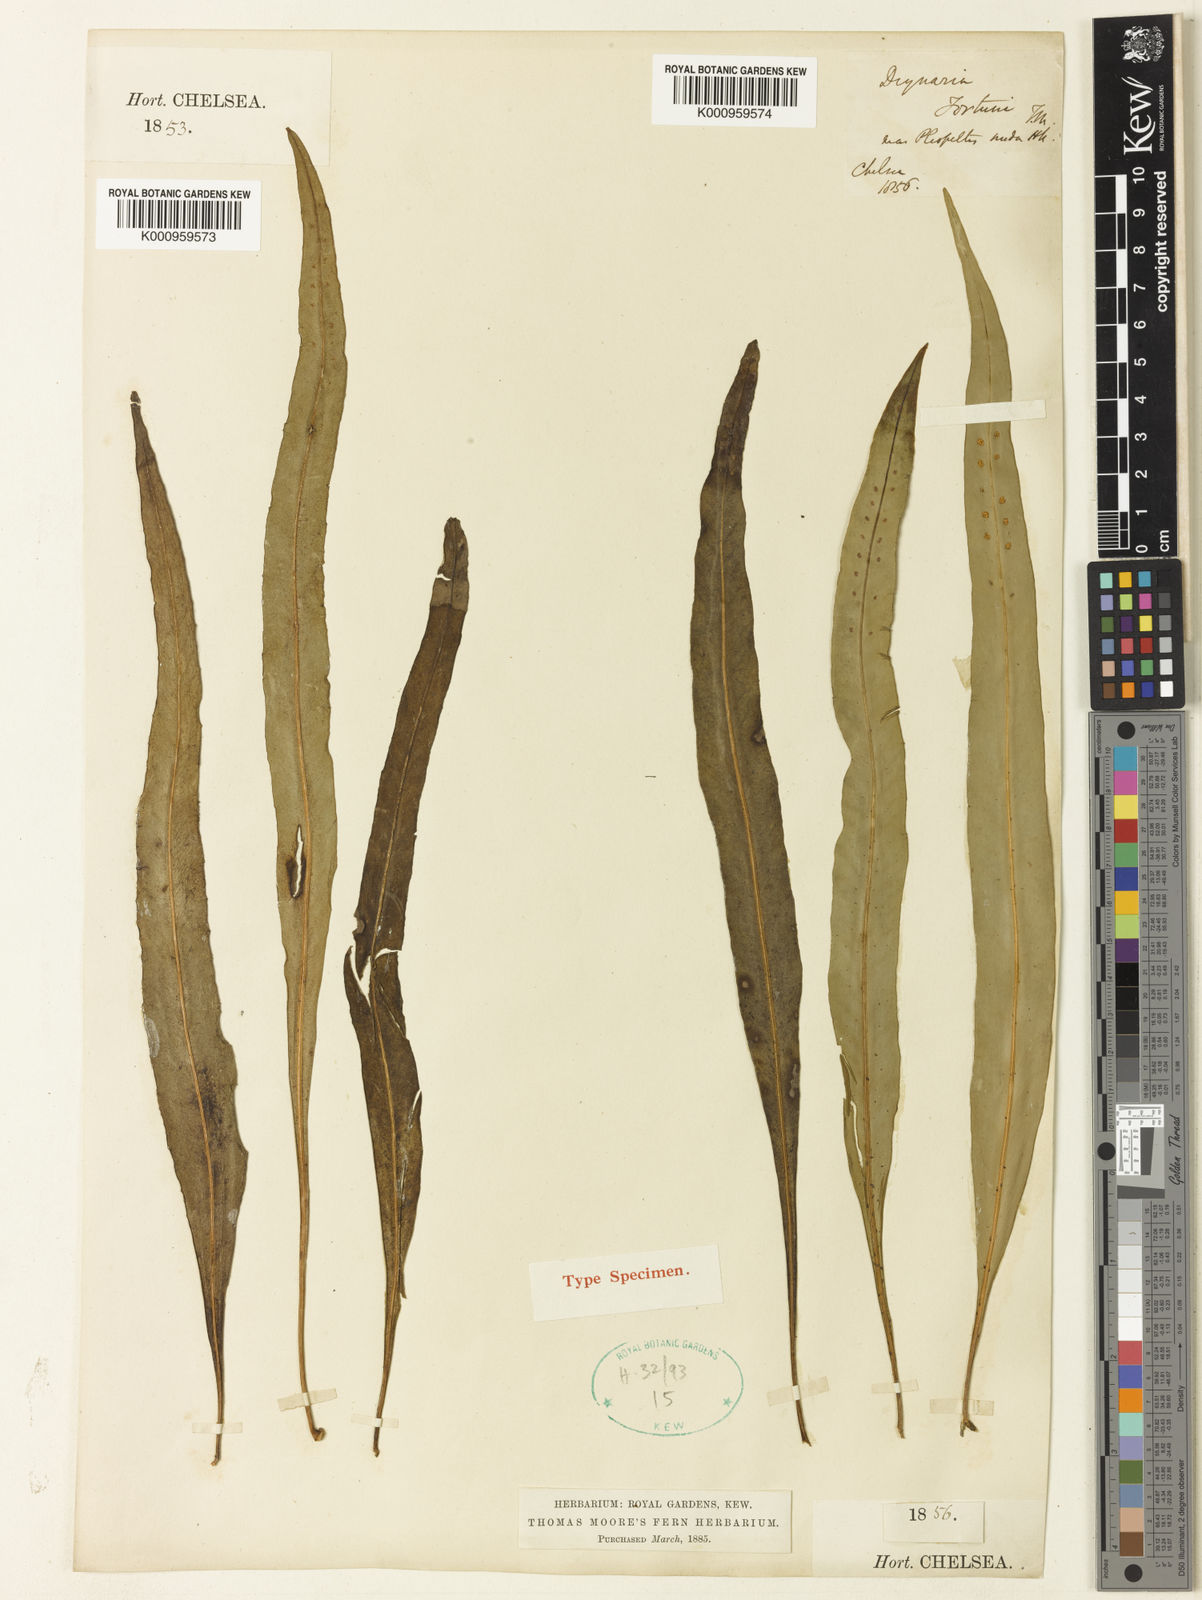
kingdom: Plantae
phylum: Tracheophyta
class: Polypodiopsida
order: Polypodiales
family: Polypodiaceae
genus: Lepisorus
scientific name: Lepisorus nudus
